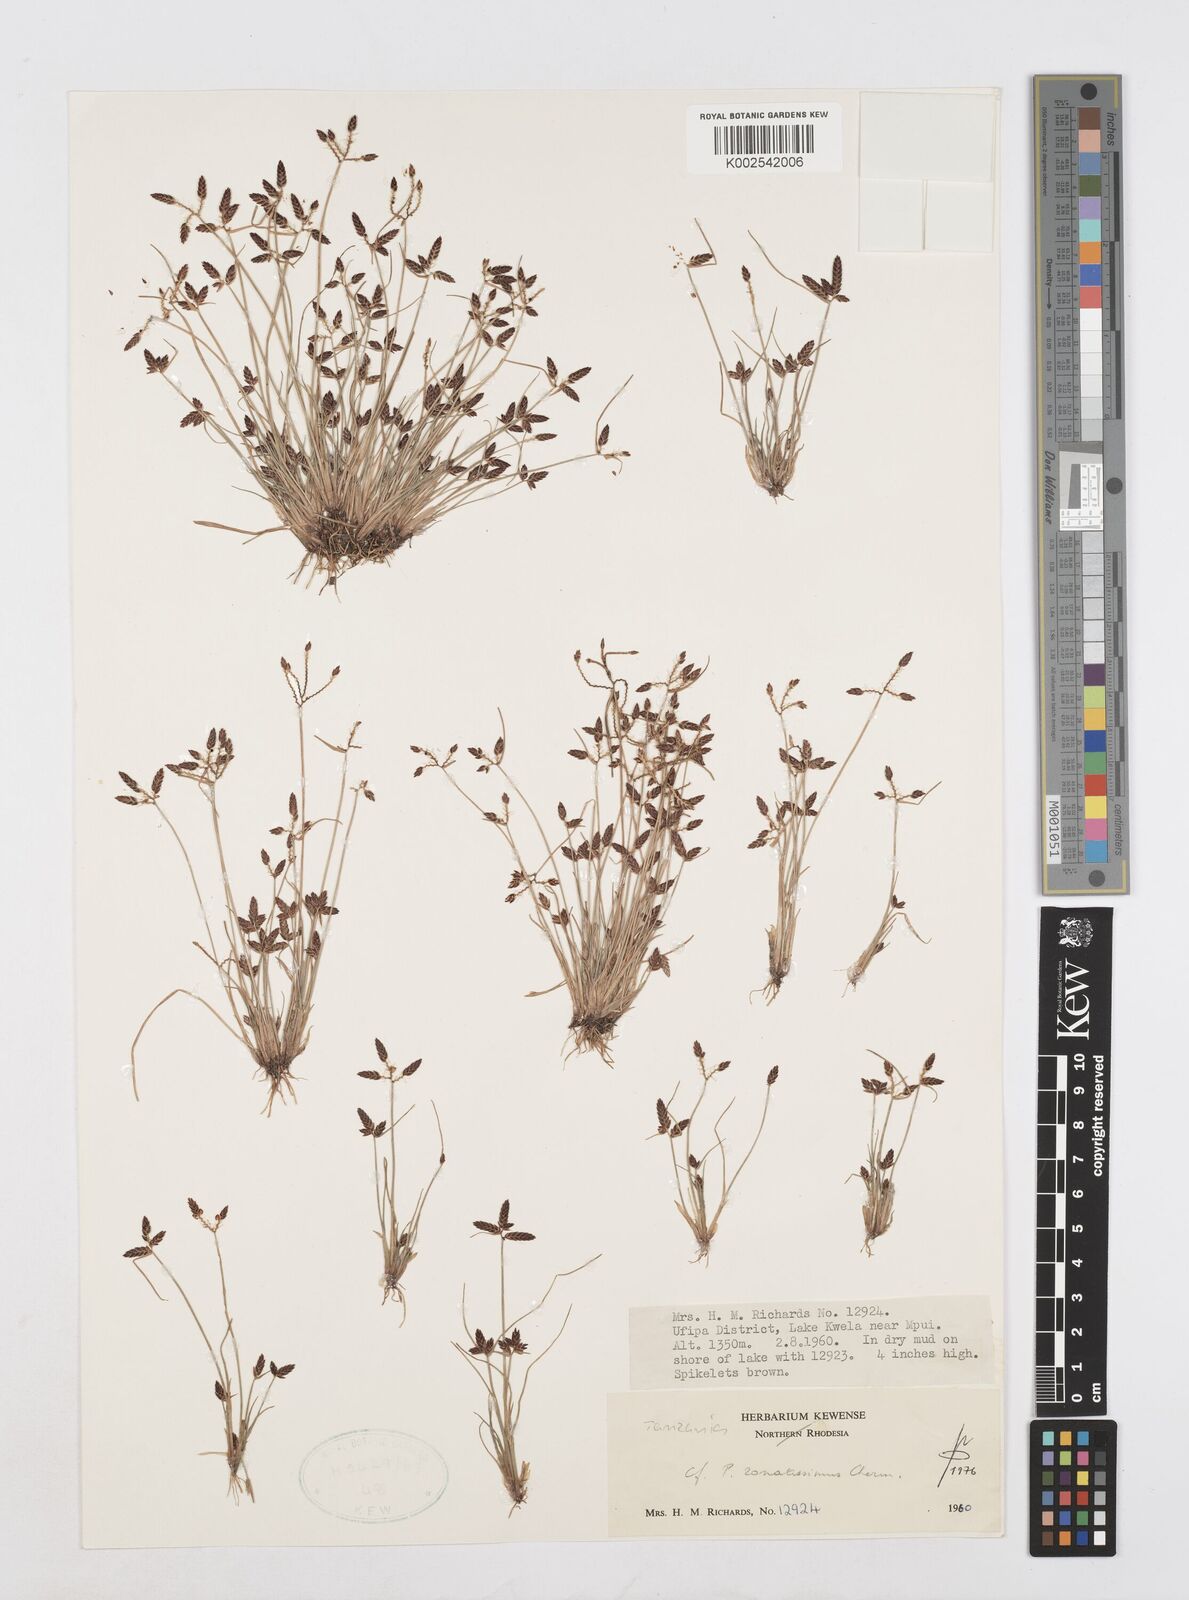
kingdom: Plantae
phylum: Tracheophyta
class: Liliopsida
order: Poales
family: Cyperaceae
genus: Cyperus
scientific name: Cyperus zonatissimus
